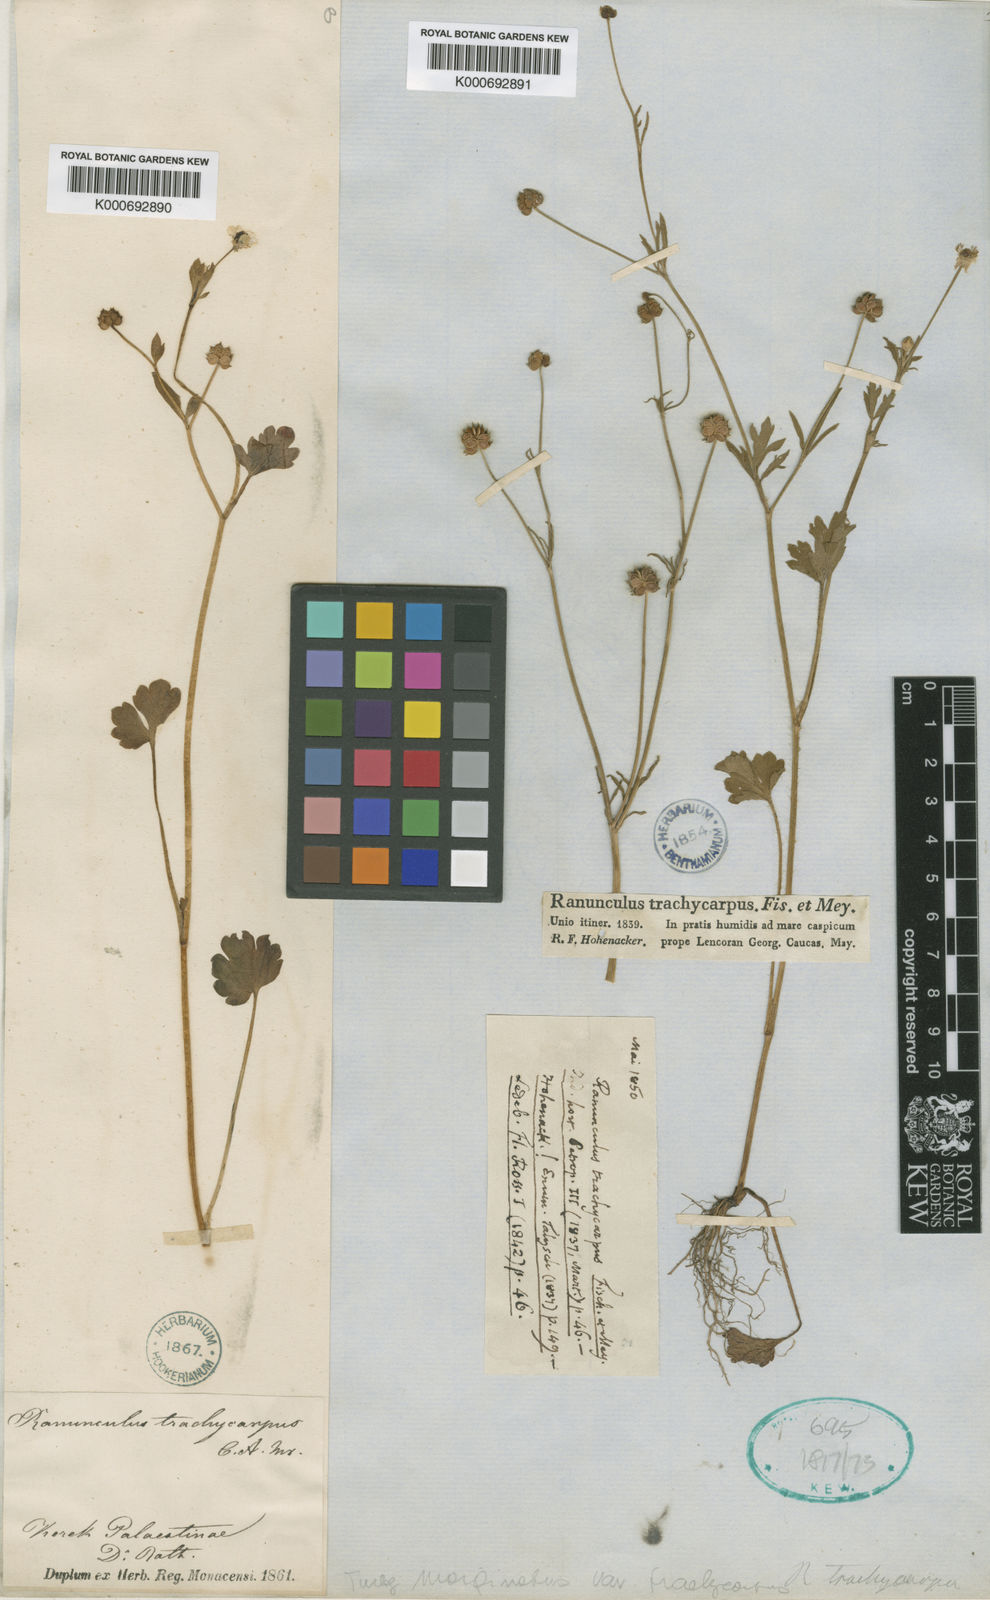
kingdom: Plantae
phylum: Tracheophyta
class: Magnoliopsida
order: Ranunculales
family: Ranunculaceae
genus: Ranunculus
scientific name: Ranunculus marginatus
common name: St. martin's buttercup
